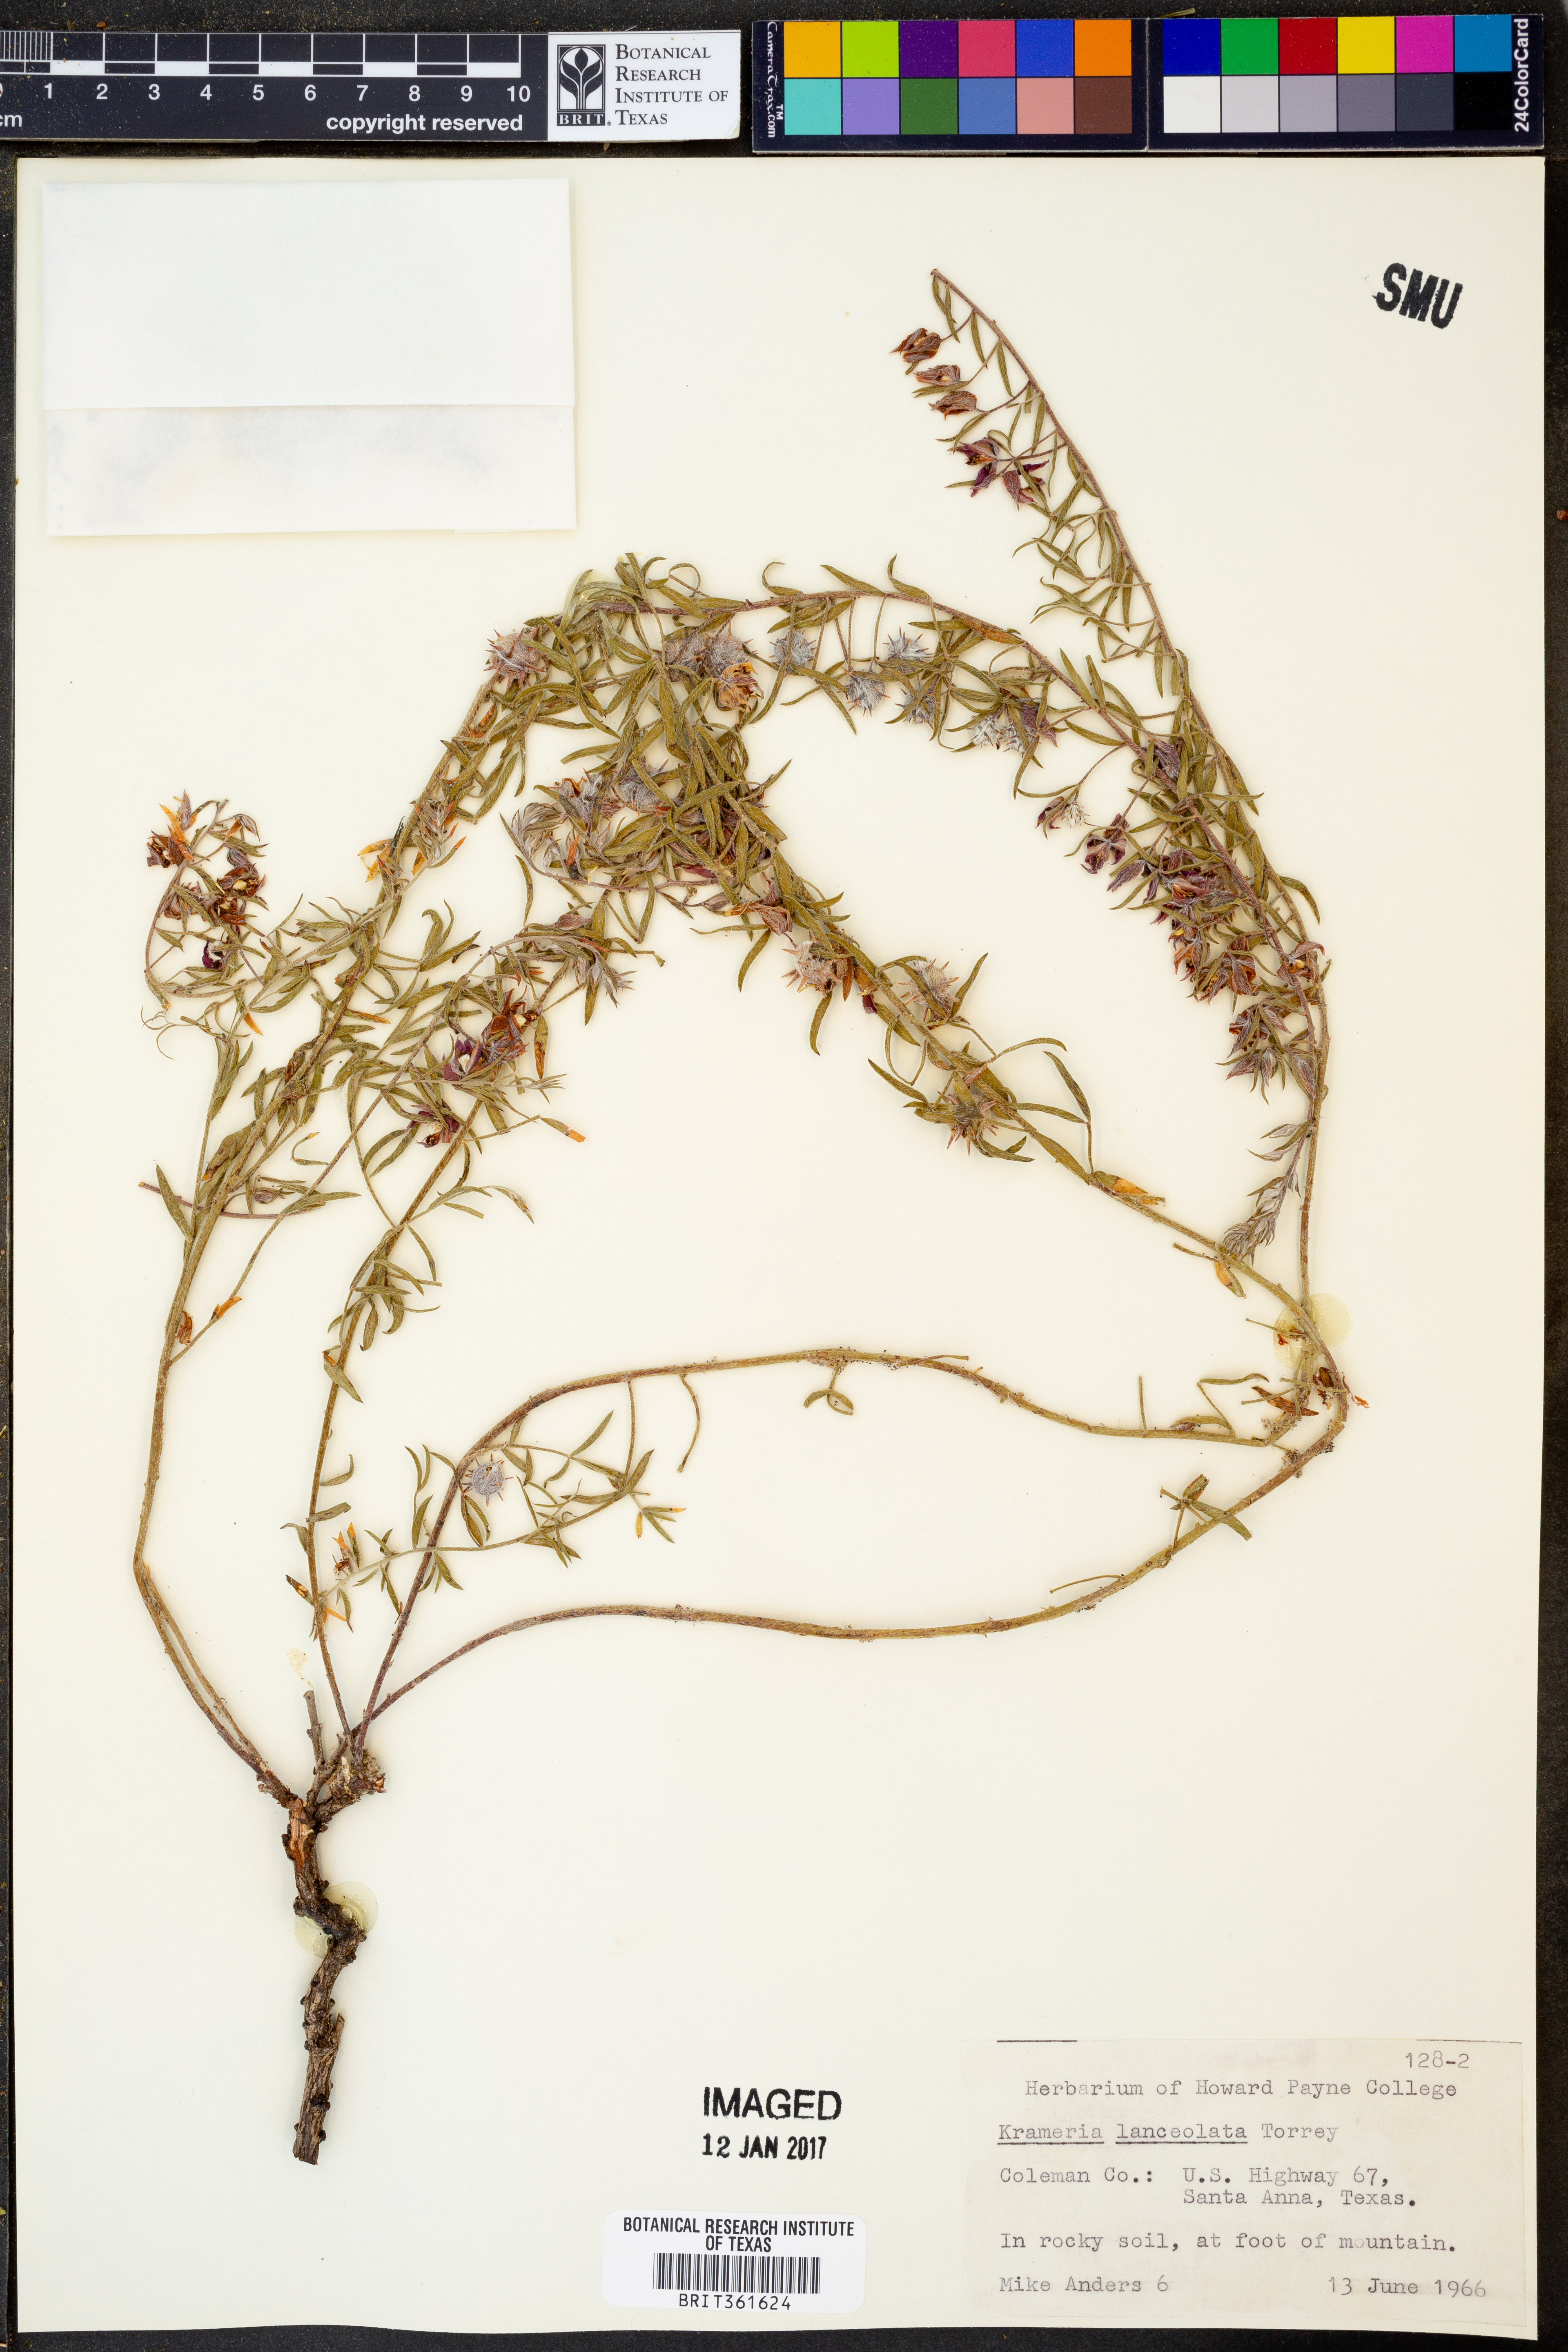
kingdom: Plantae
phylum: Tracheophyta
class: Magnoliopsida
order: Zygophyllales
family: Krameriaceae
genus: Krameria
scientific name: Krameria lanceolata
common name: Ratany
